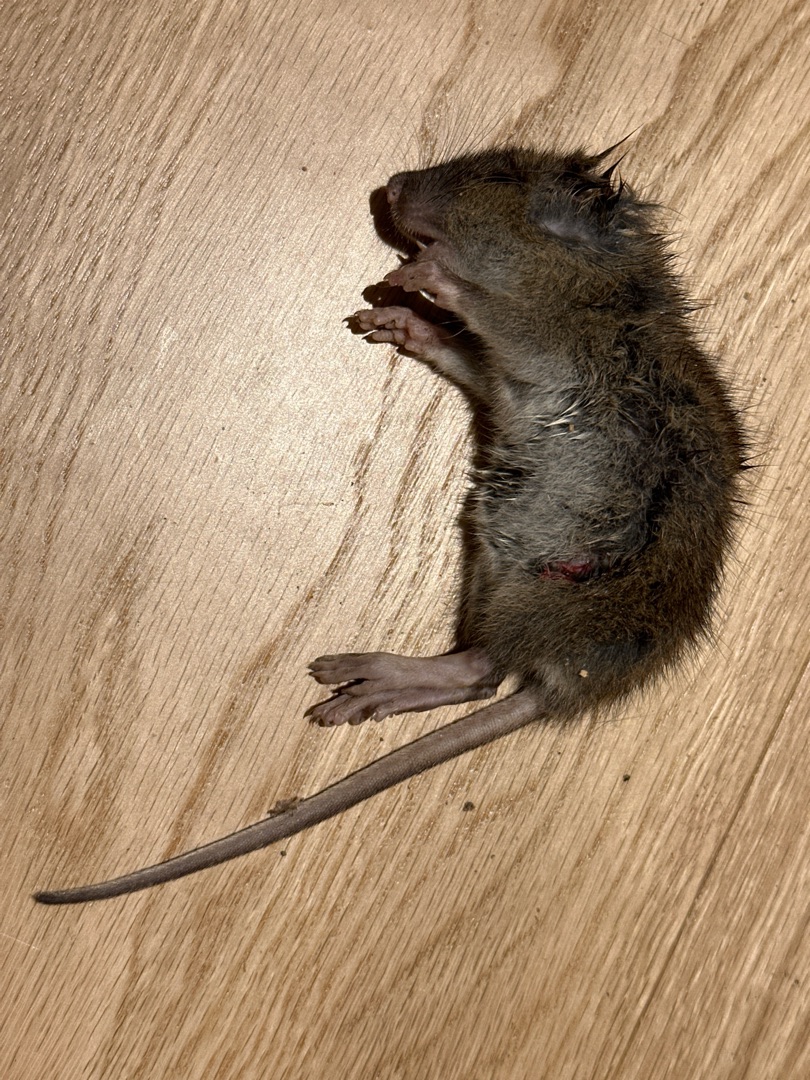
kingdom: Animalia
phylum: Chordata
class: Mammalia
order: Rodentia
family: Muridae
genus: Rattus
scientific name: Rattus norvegicus
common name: Brun rotte
